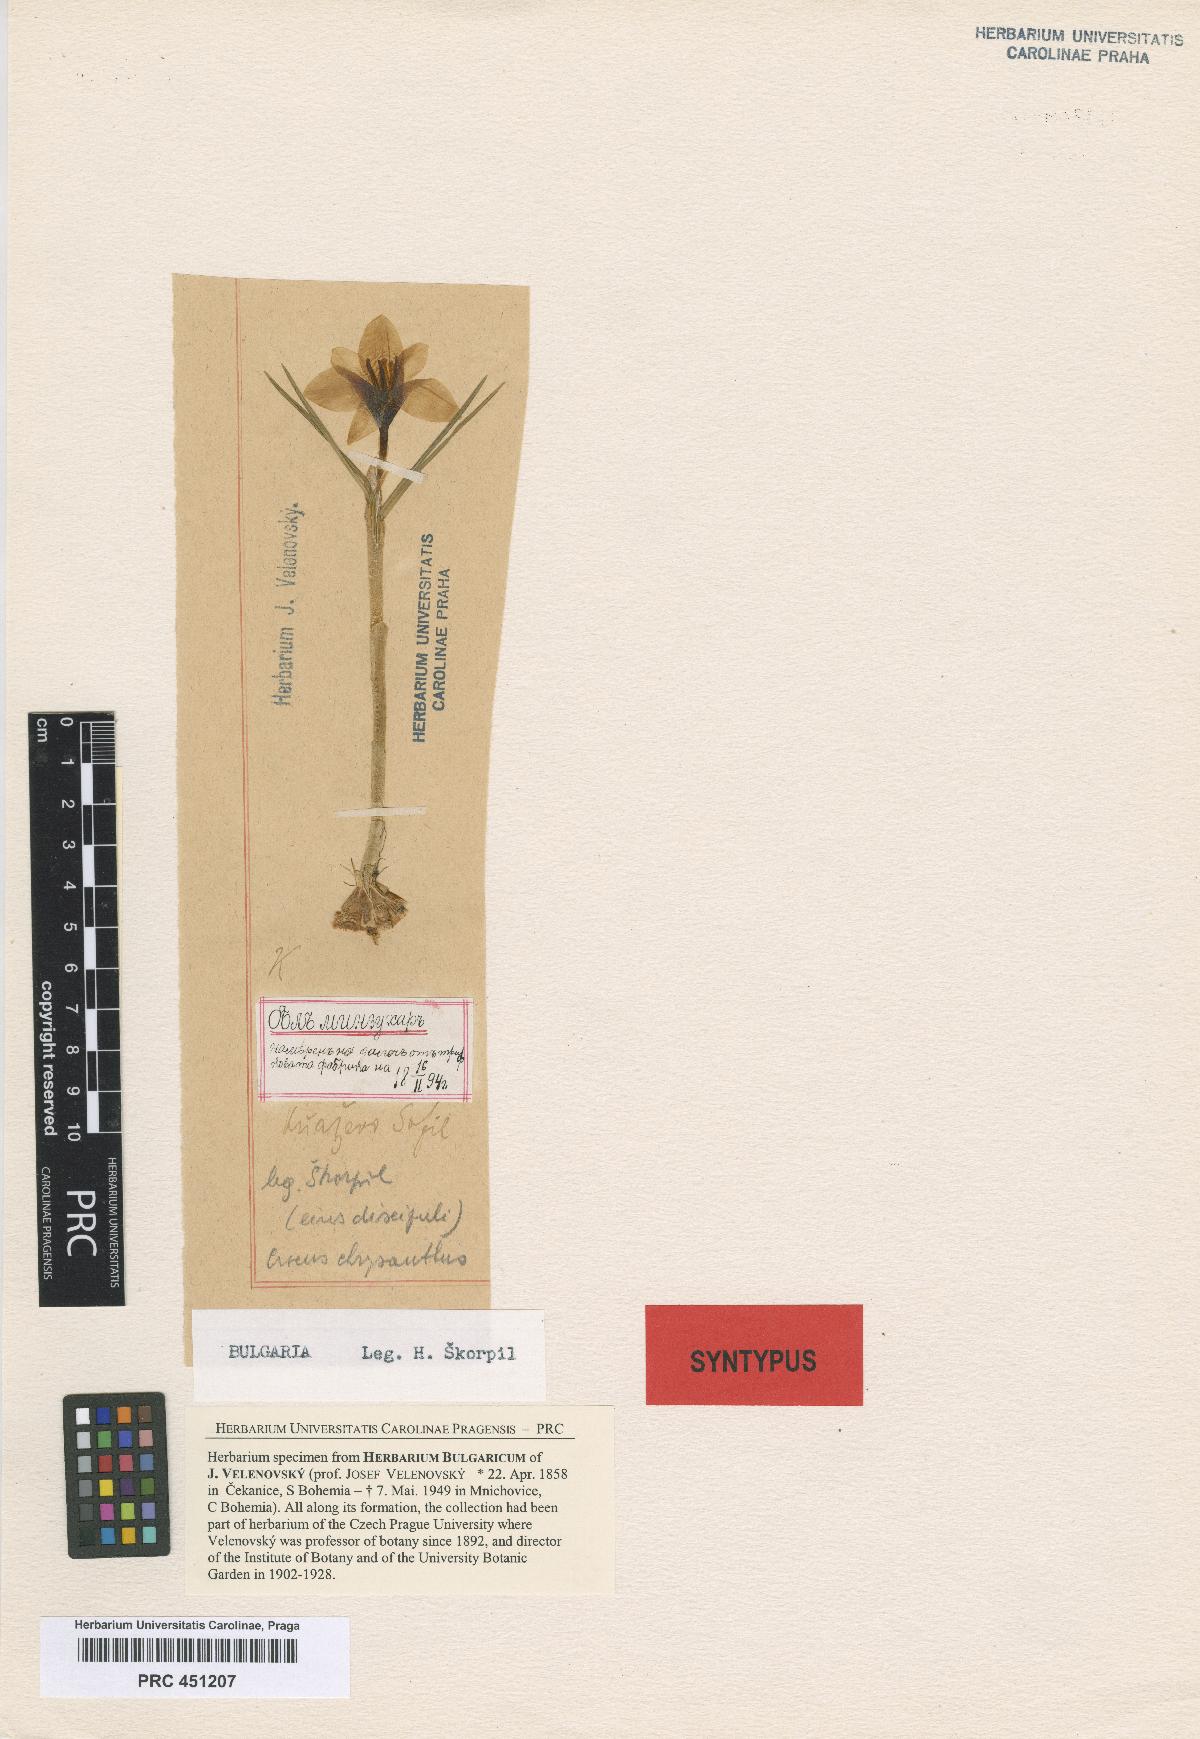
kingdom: Plantae
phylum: Tracheophyta
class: Liliopsida
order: Liliales
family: Liliaceae
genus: Gagea
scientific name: Gagea pratensis
